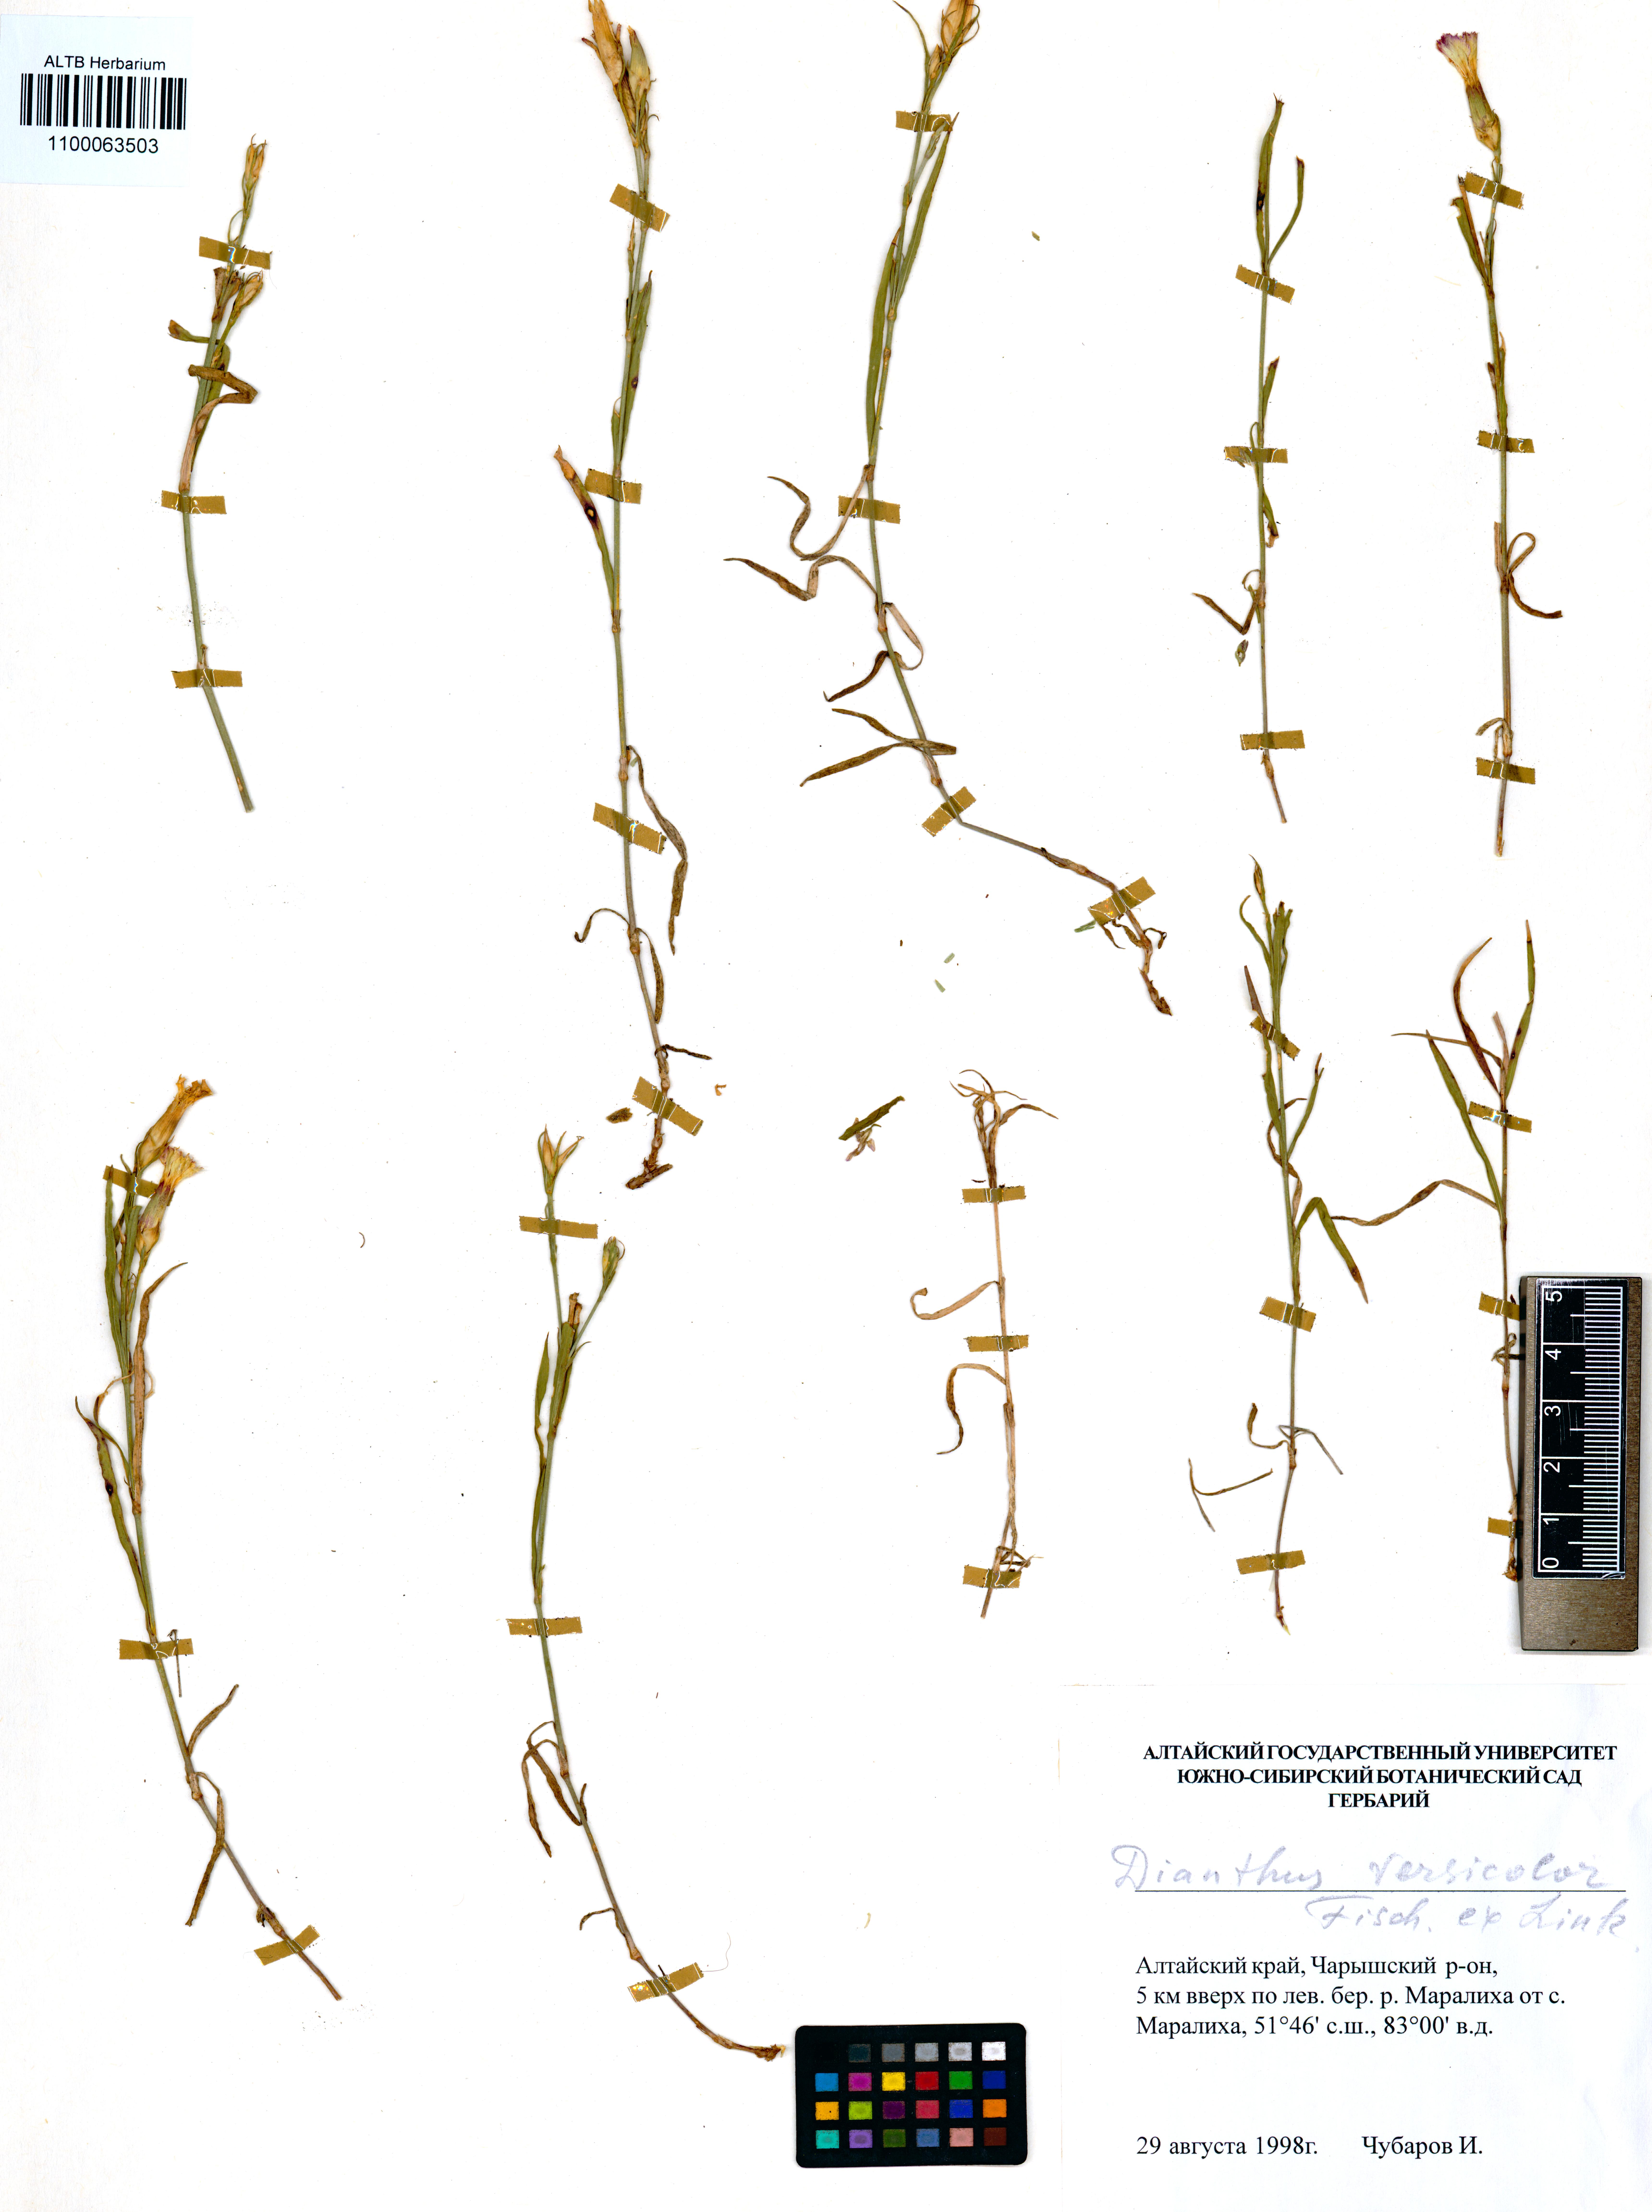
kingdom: Plantae
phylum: Tracheophyta
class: Magnoliopsida
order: Caryophyllales
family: Caryophyllaceae
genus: Dianthus
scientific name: Dianthus chinensis
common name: Rainbow pink
